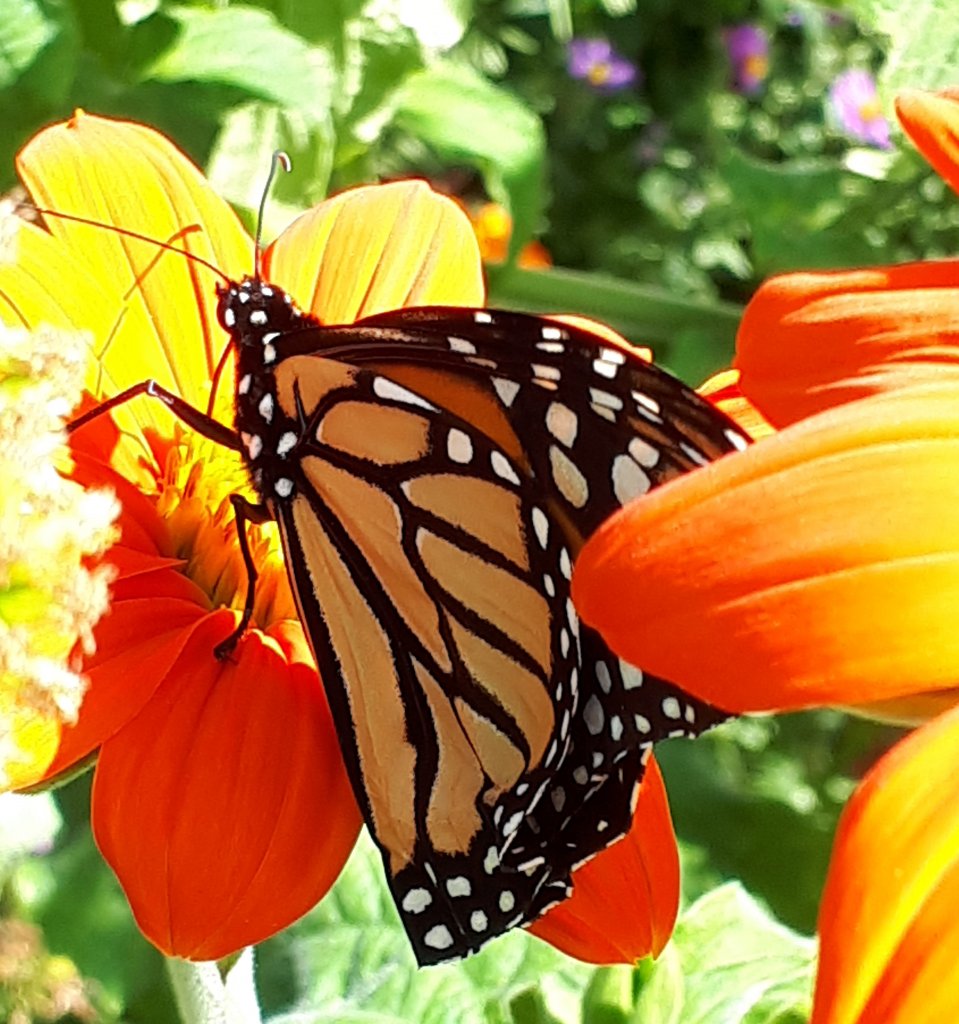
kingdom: Animalia
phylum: Arthropoda
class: Insecta
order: Lepidoptera
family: Nymphalidae
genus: Danaus
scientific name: Danaus plexippus
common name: Monarch
